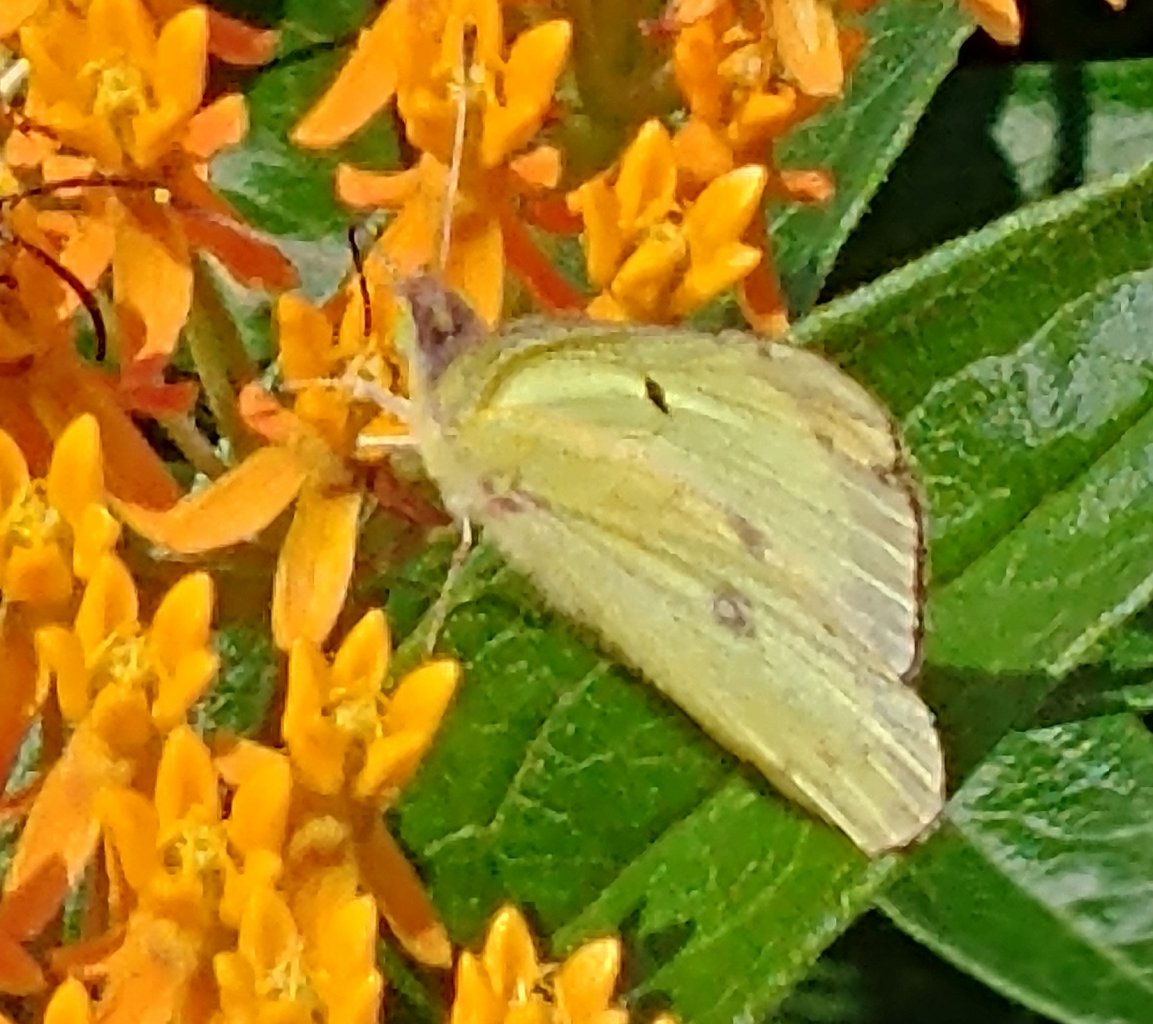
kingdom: Animalia
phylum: Arthropoda
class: Insecta
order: Lepidoptera
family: Pieridae
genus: Colias
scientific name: Colias philodice
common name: Clouded Sulphur
